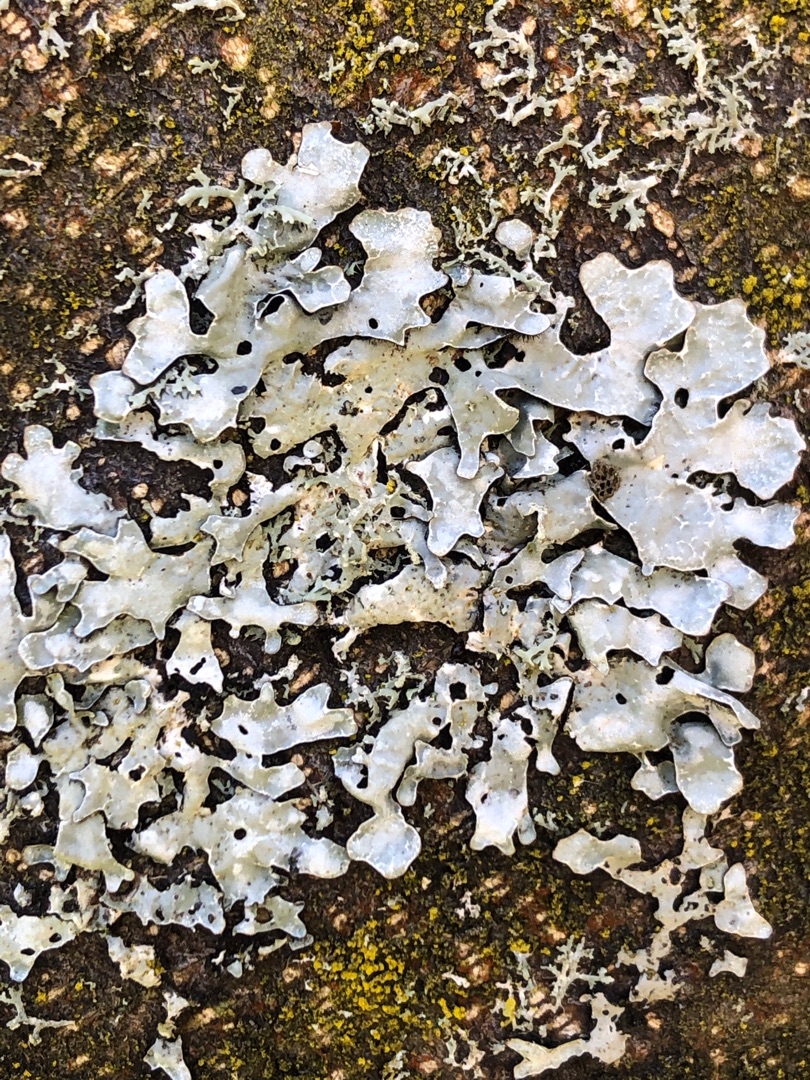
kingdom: Fungi
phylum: Ascomycota
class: Lecanoromycetes
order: Lecanorales
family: Parmeliaceae
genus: Parmelia
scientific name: Parmelia sulcata
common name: Rynket skållav
